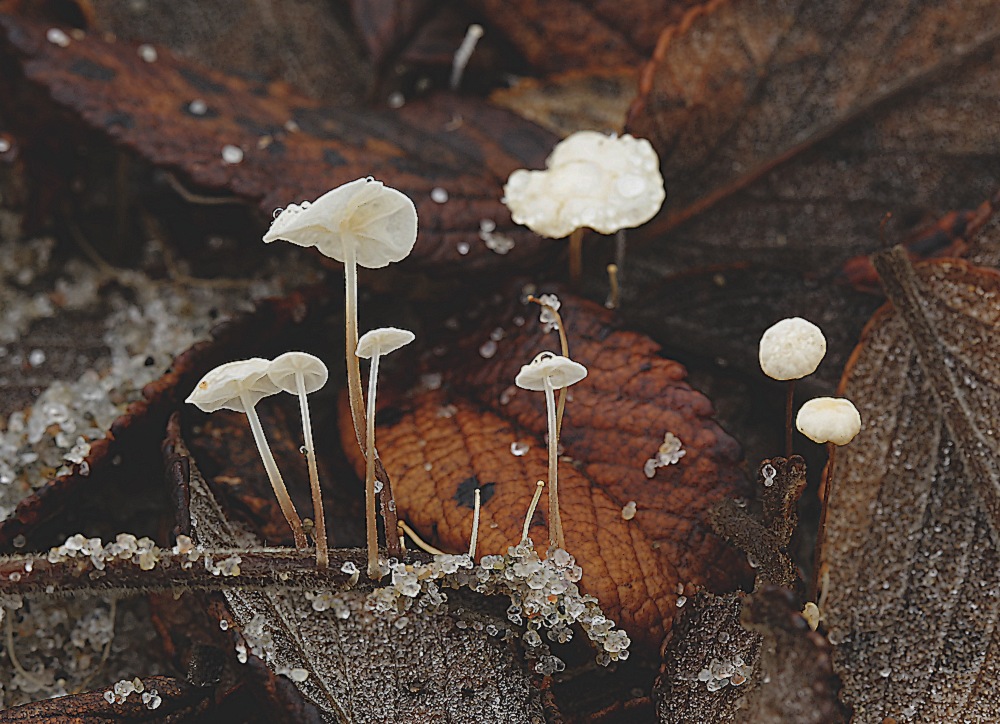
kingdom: Fungi
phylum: Basidiomycota
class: Agaricomycetes
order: Agaricales
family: Marasmiaceae
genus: Marasmius
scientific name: Marasmius epiphyllus
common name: blad-bruskhat
